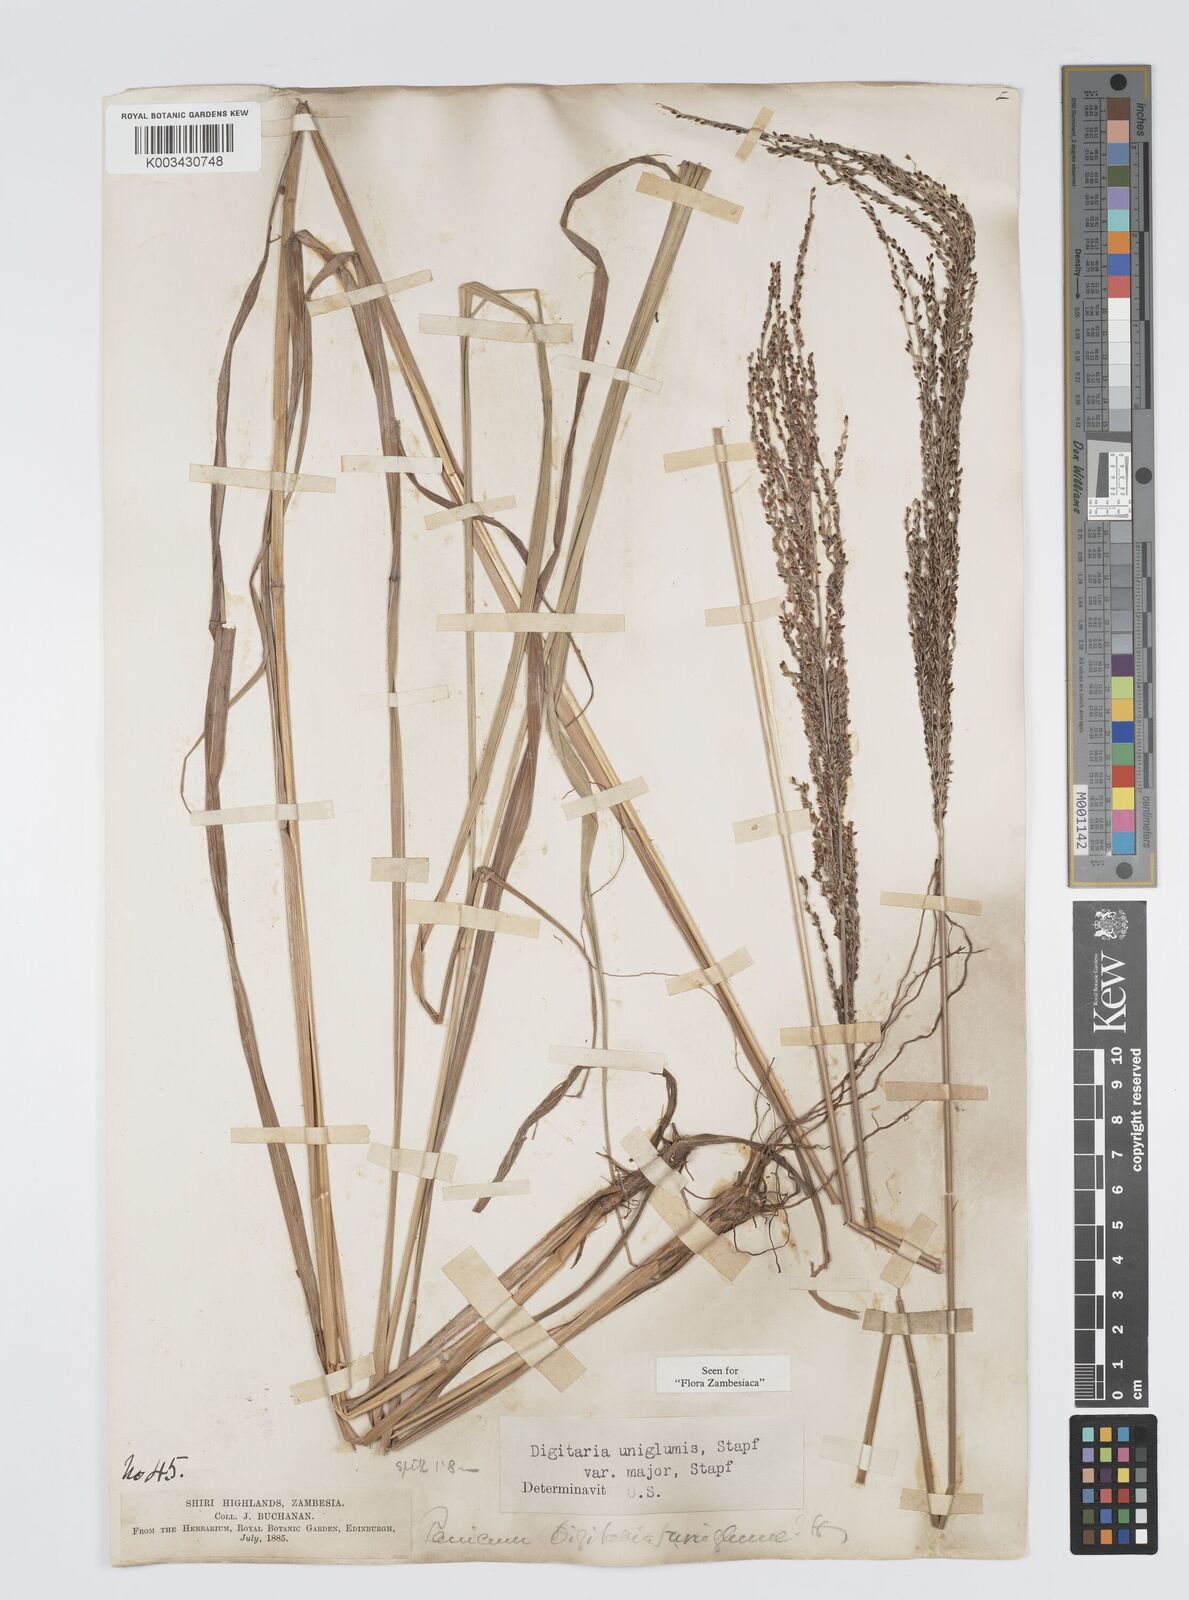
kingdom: Plantae
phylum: Tracheophyta
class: Liliopsida
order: Poales
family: Poaceae
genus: Digitaria
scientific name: Digitaria diagonalis
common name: Brown-seed finger grass
